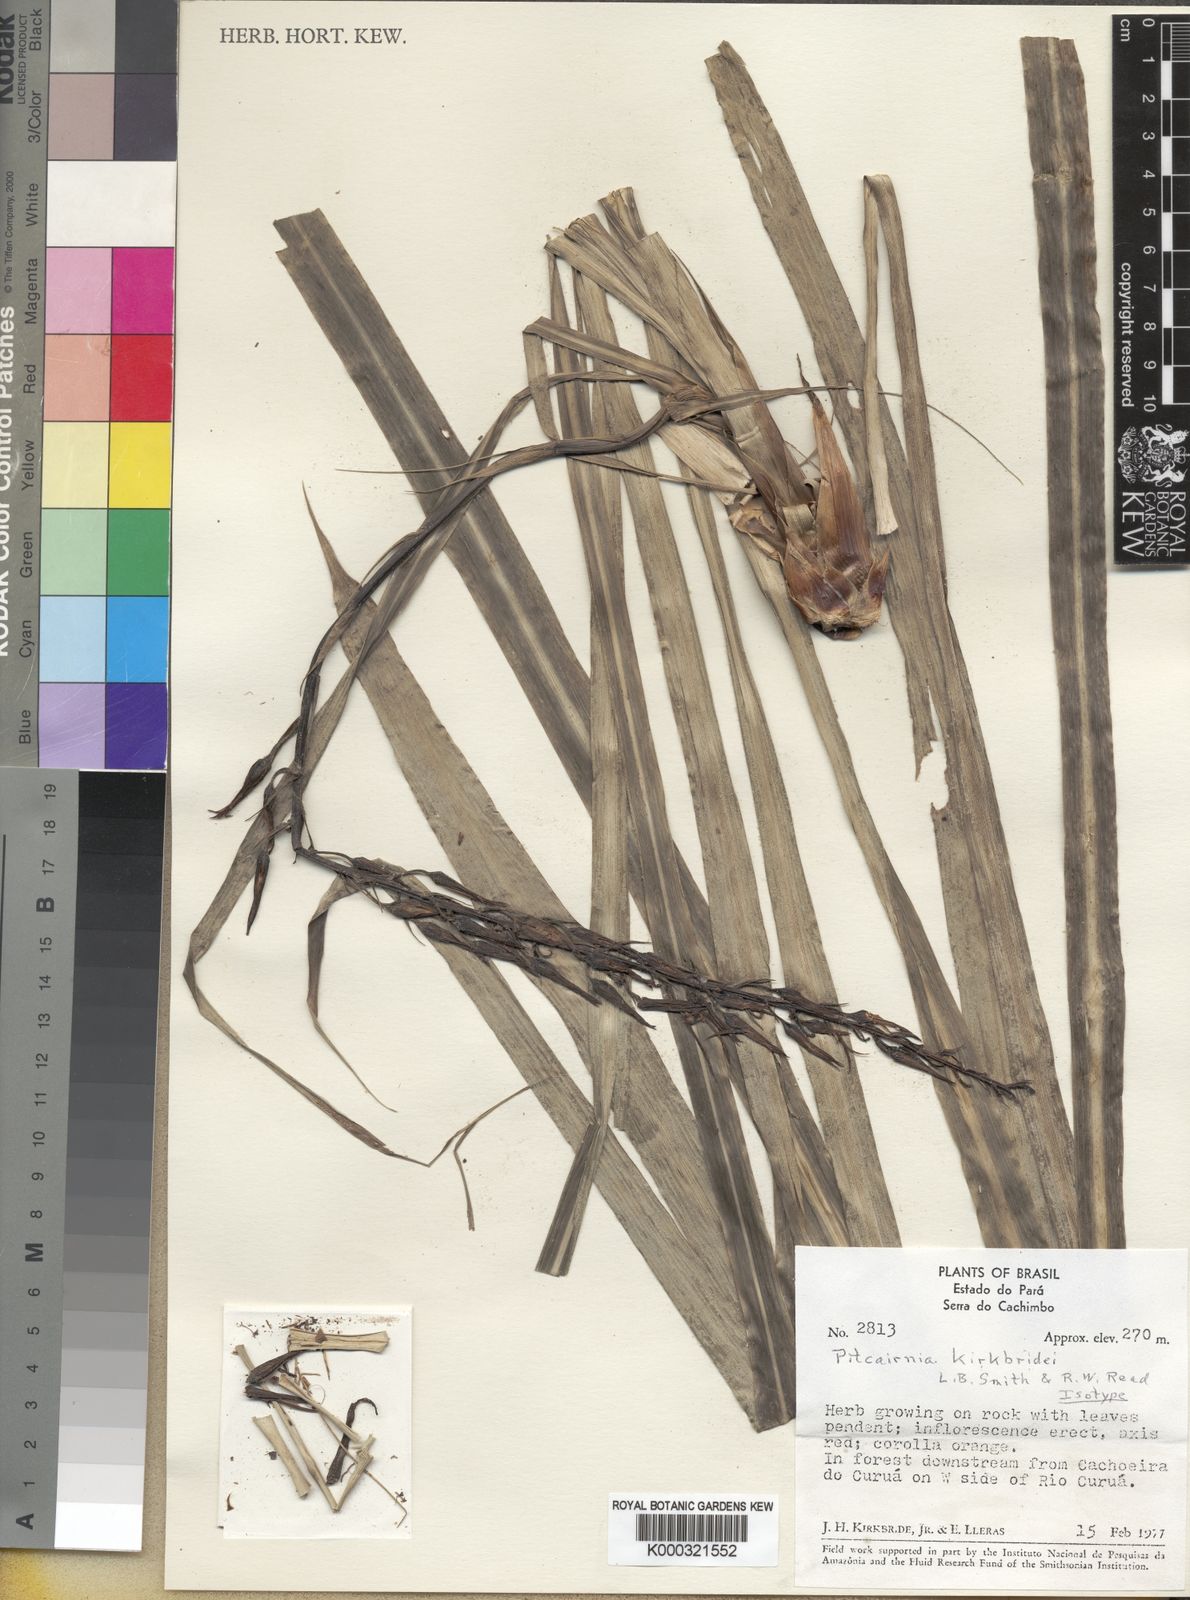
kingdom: Plantae
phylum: Tracheophyta
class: Liliopsida
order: Poales
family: Bromeliaceae
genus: Pitcairnia
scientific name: Pitcairnia kirkbridei
